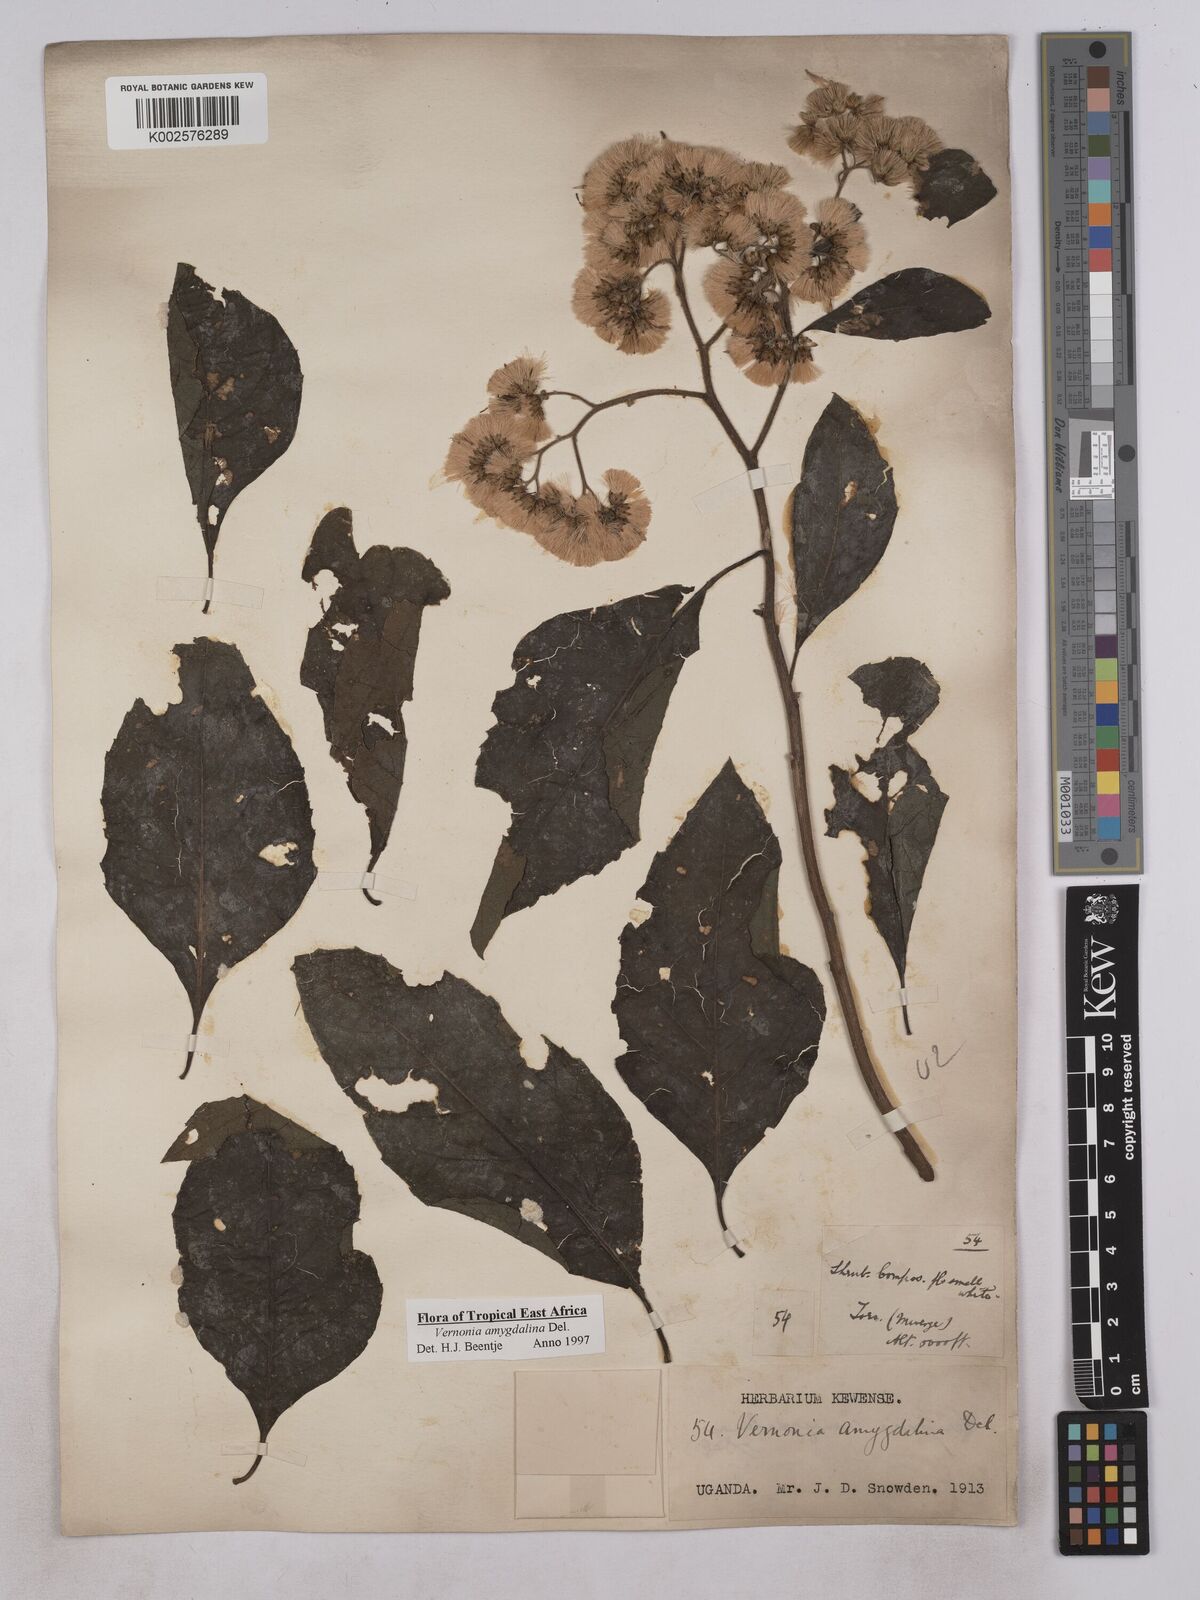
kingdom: Plantae
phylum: Tracheophyta
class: Magnoliopsida
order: Asterales
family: Asteraceae
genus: Gymnanthemum
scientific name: Gymnanthemum amygdalinum
